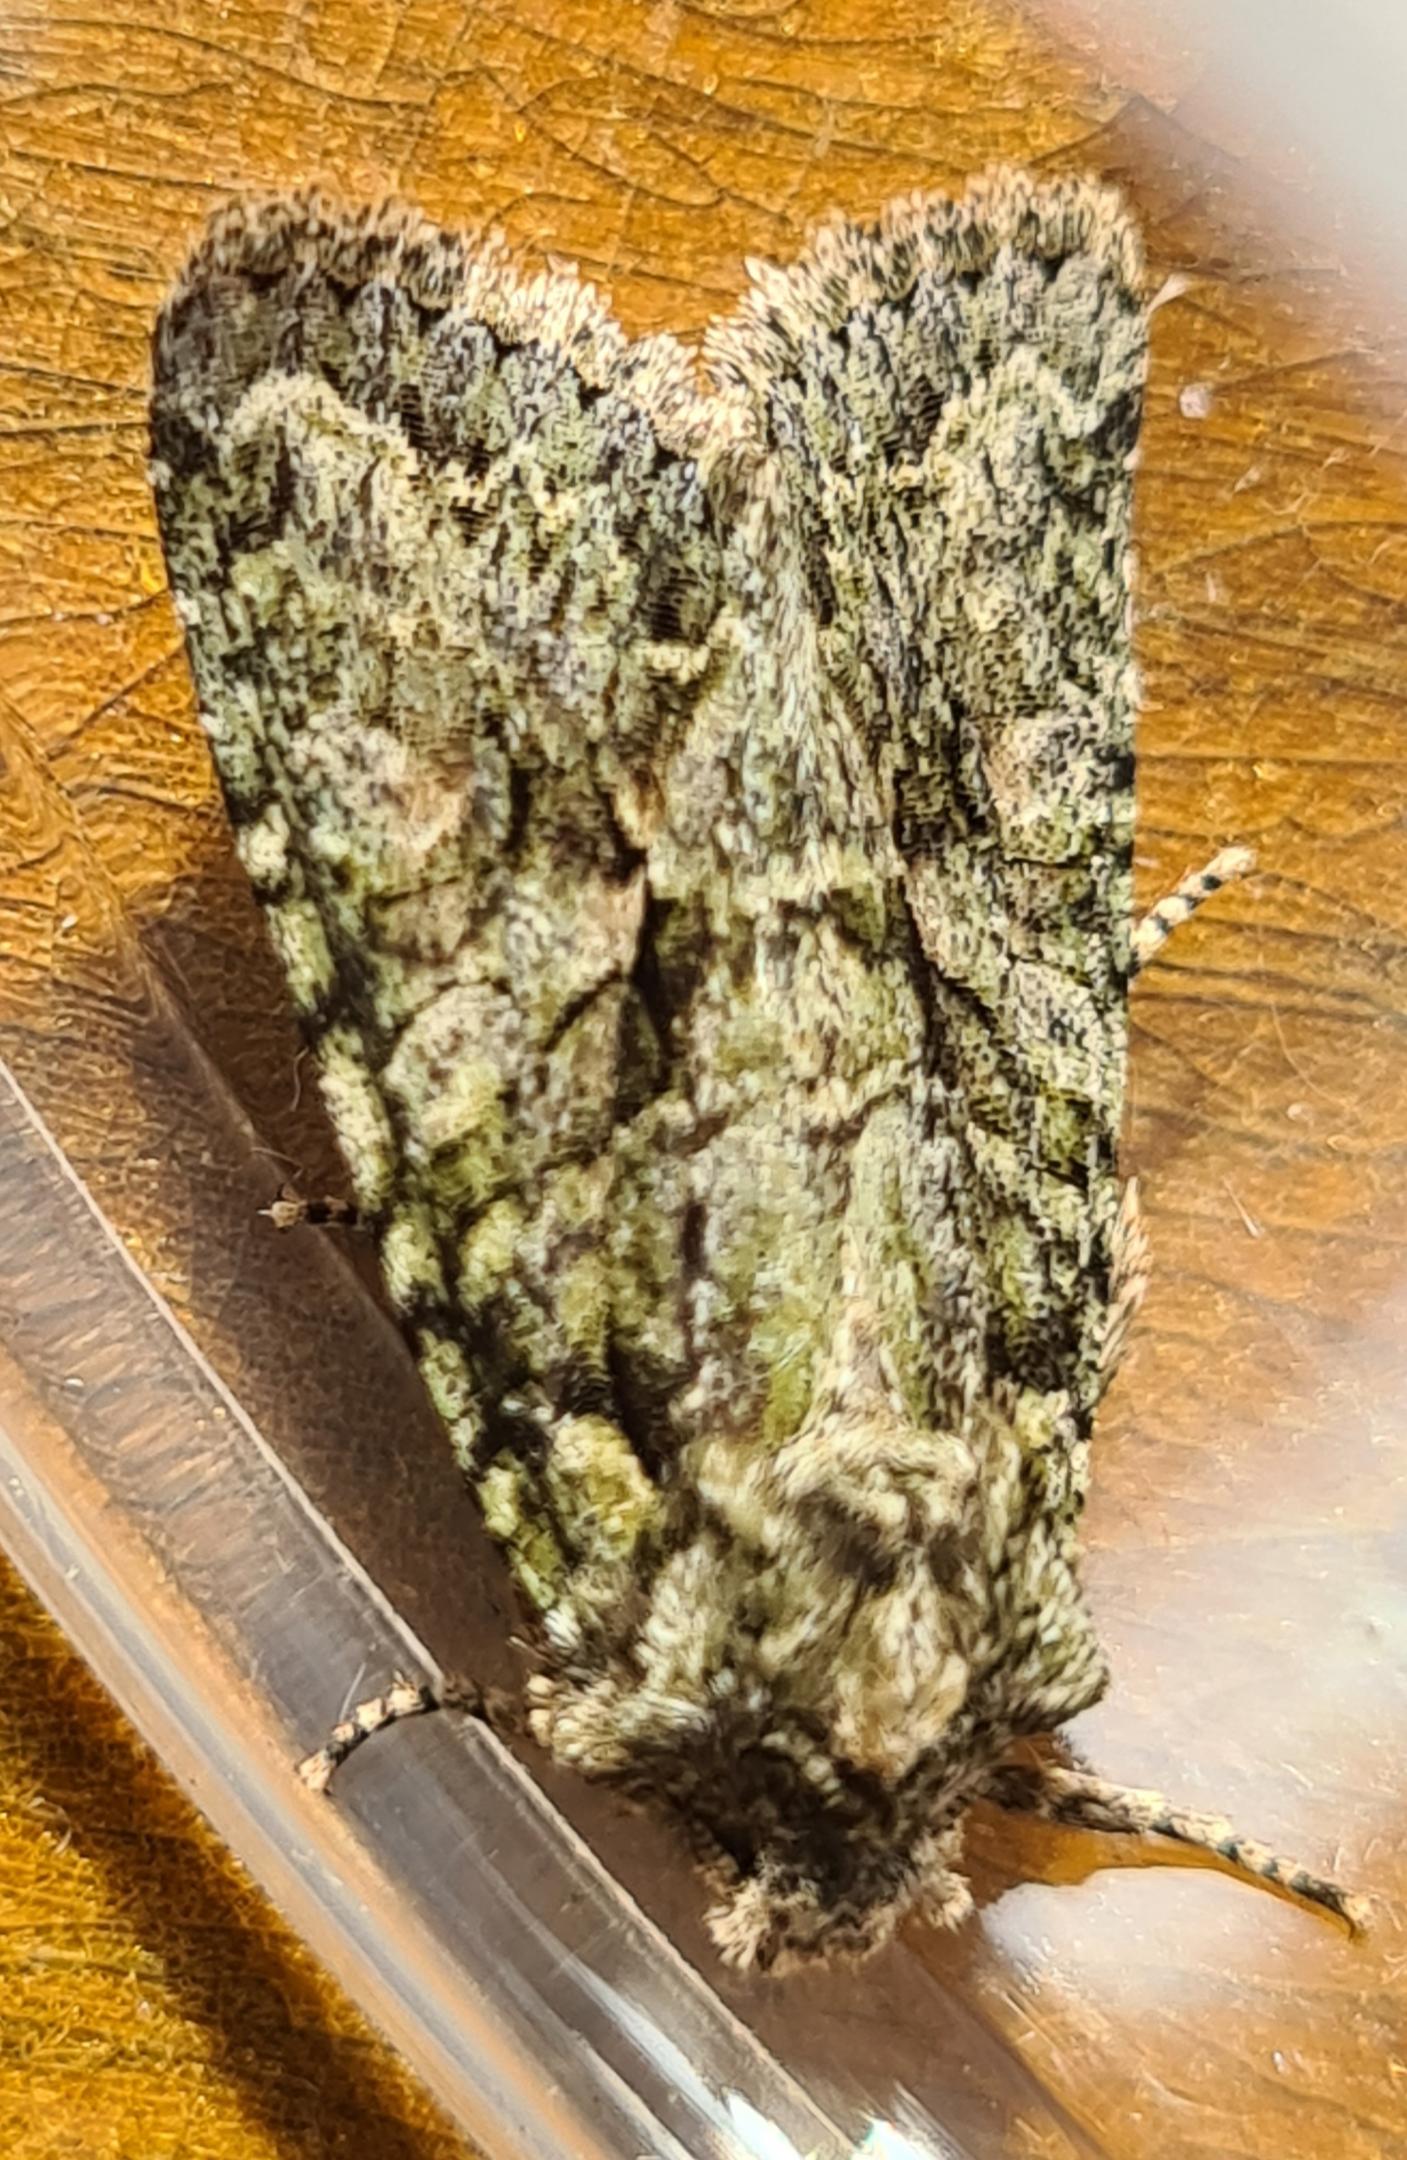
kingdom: Animalia
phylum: Arthropoda
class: Insecta
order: Lepidoptera
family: Noctuidae
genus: Dryobotodes
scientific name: Dryobotodes eremita
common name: Eremitugle
